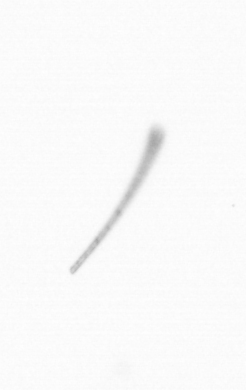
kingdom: Chromista
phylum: Ochrophyta
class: Bacillariophyceae
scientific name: Bacillariophyceae
